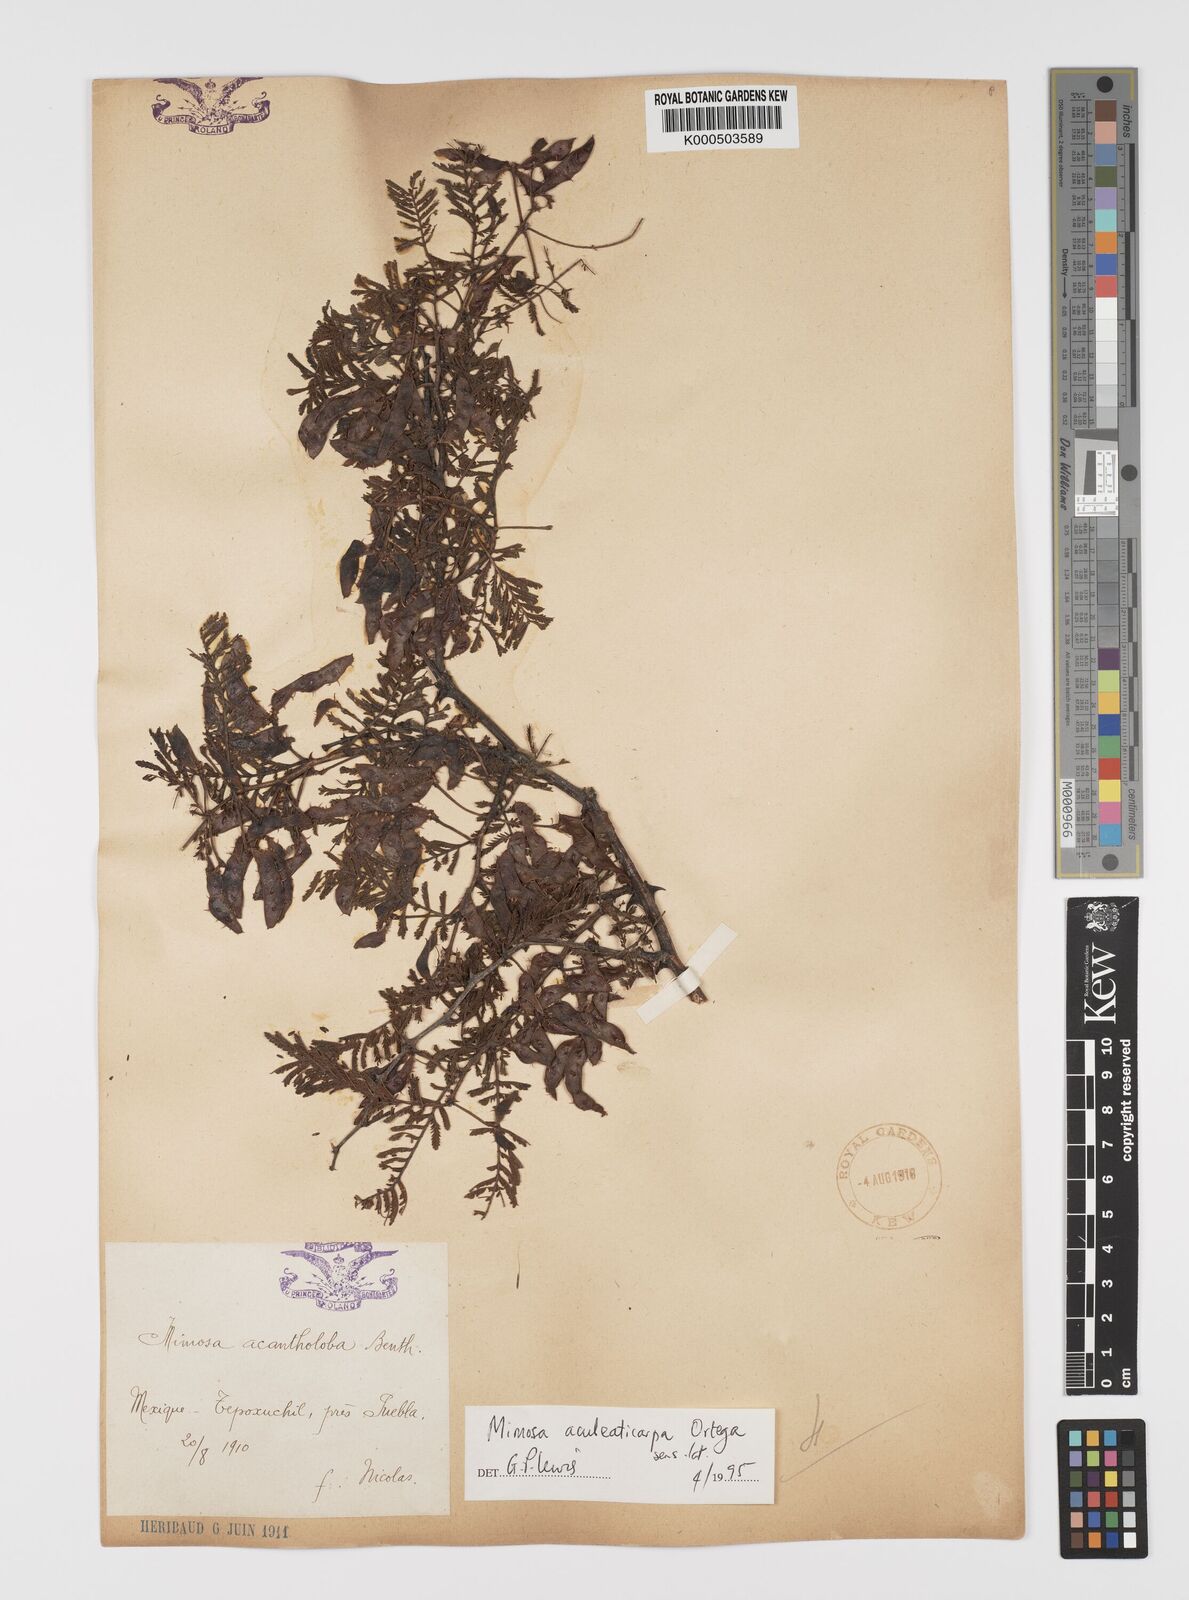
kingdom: Plantae
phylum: Tracheophyta
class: Magnoliopsida
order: Fabales
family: Fabaceae
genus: Mimosa
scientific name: Mimosa aculeaticarpa
